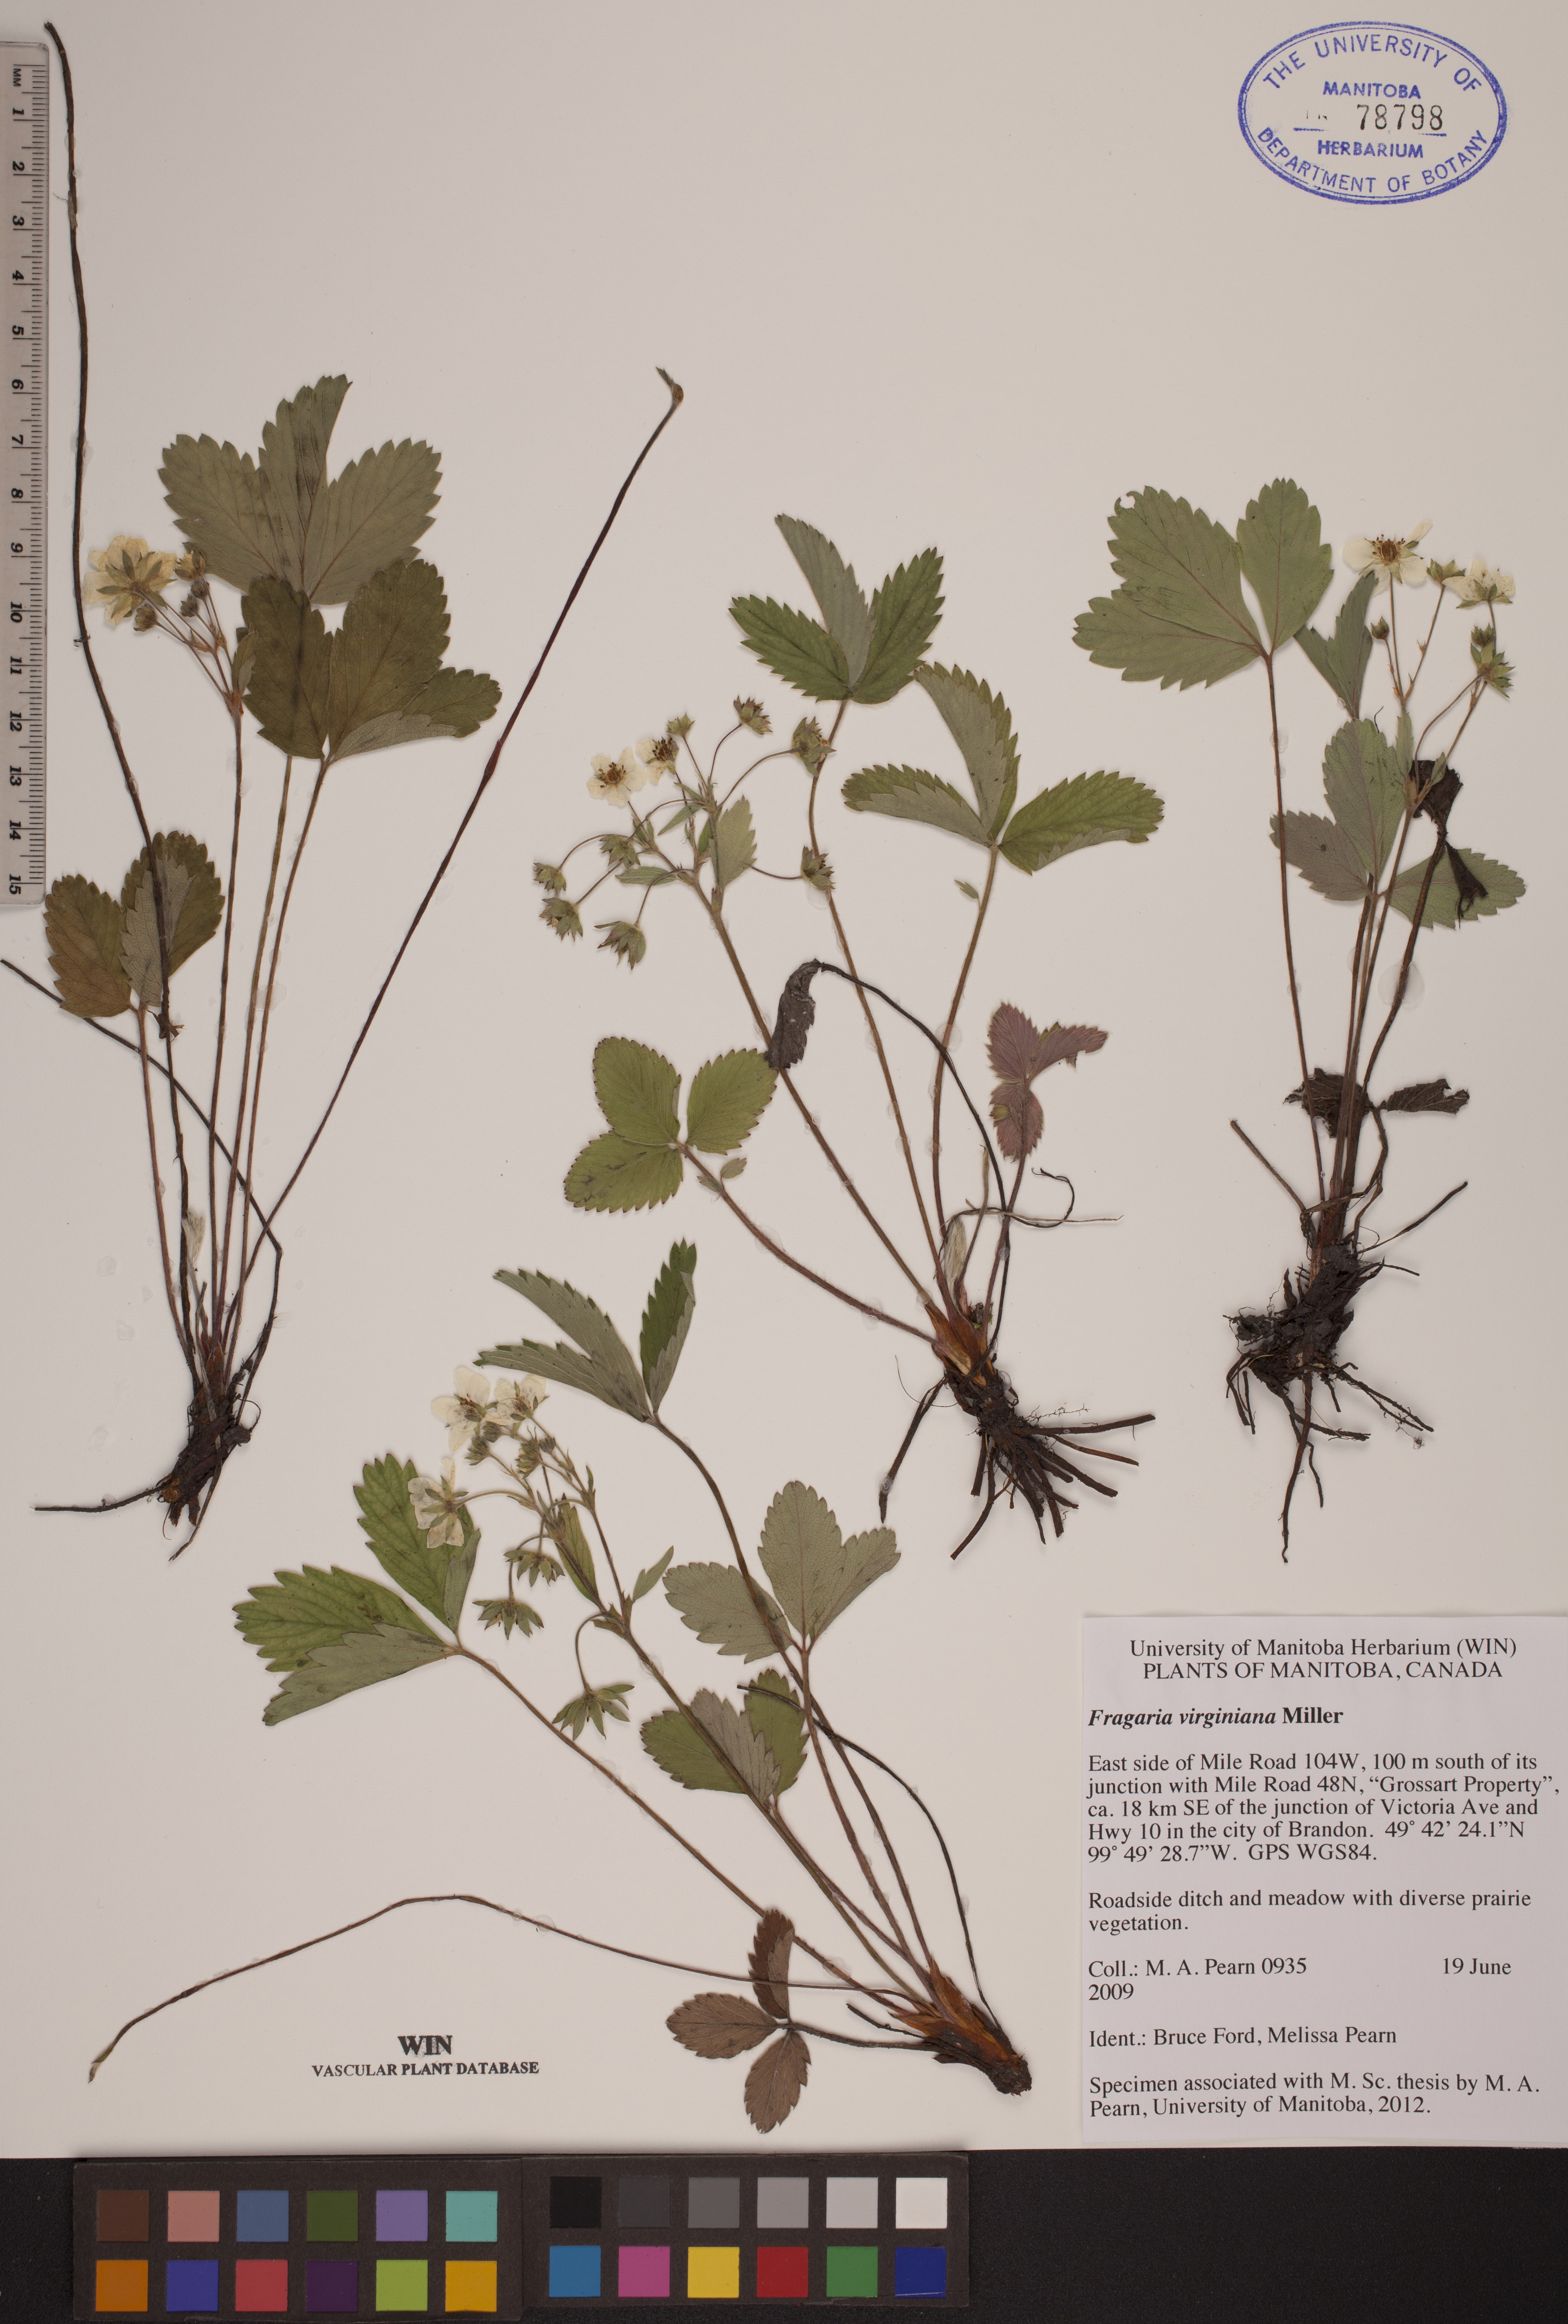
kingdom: Plantae
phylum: Tracheophyta
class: Magnoliopsida
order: Rosales
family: Rosaceae
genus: Fragaria
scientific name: Fragaria virginiana
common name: Thickleaved wild strawberry
